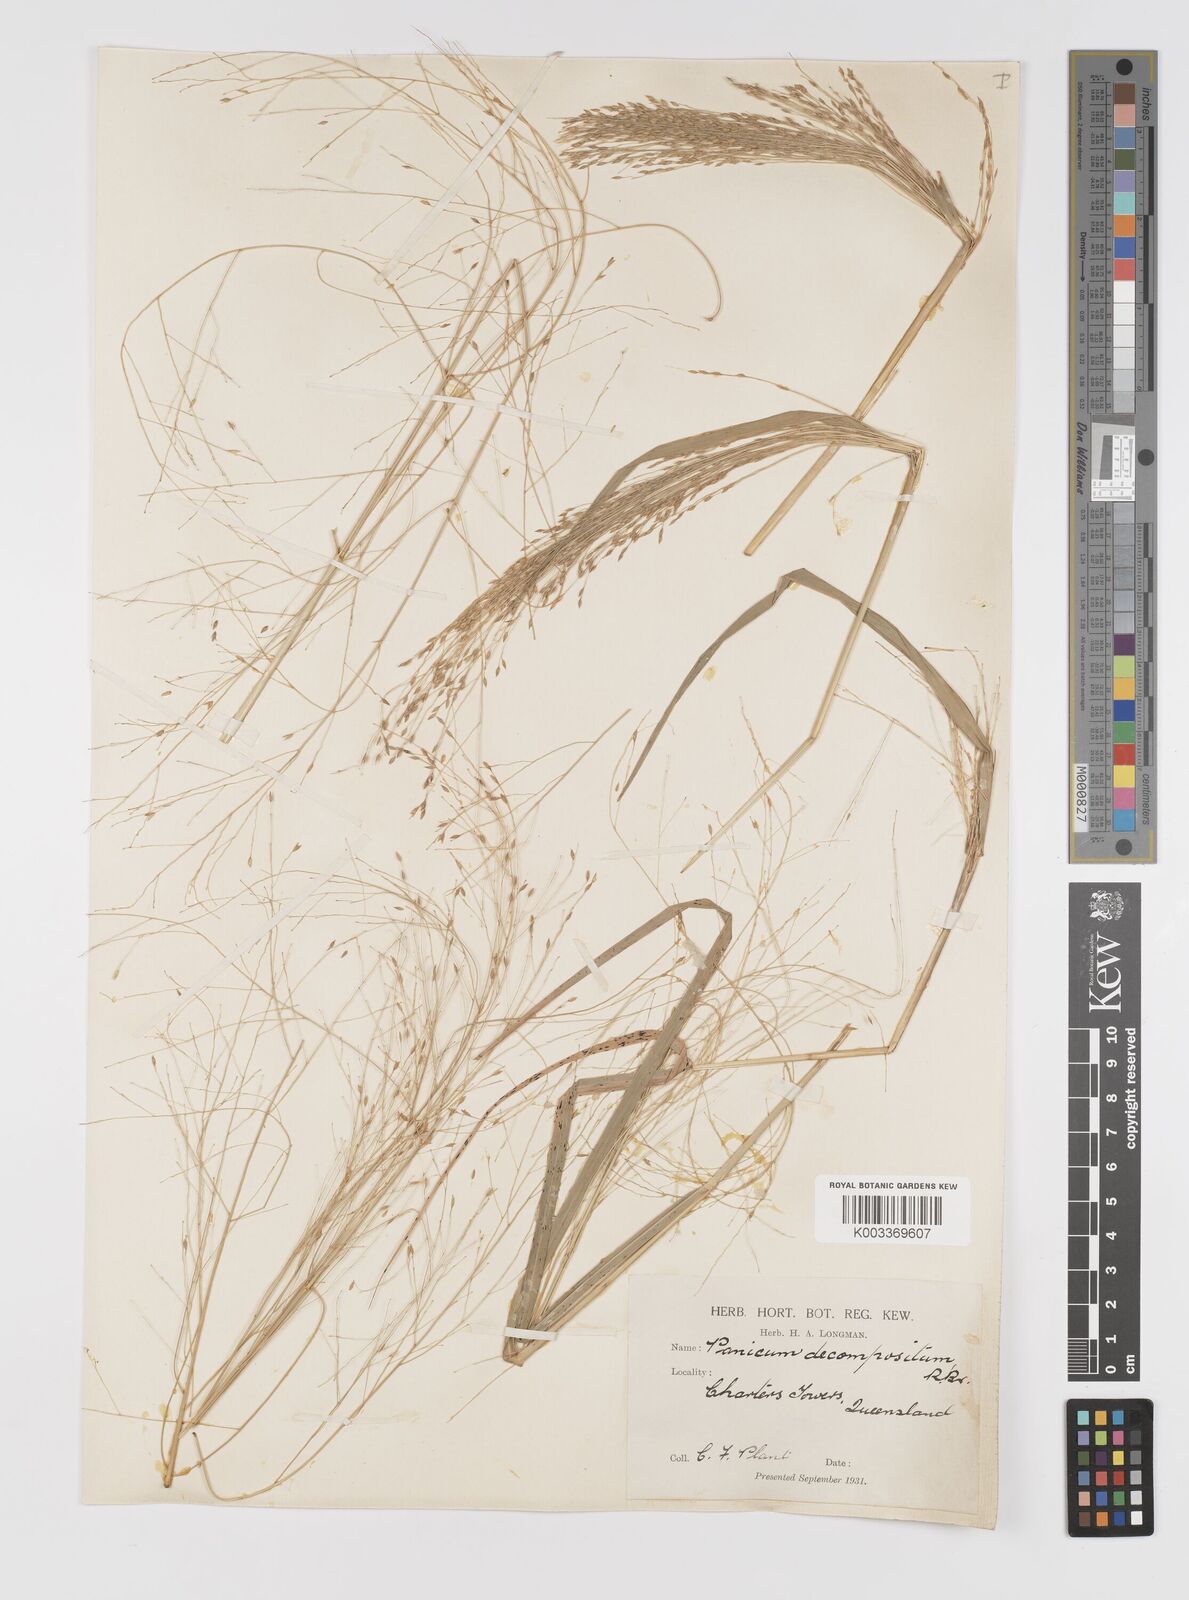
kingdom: Plantae
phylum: Tracheophyta
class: Liliopsida
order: Poales
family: Poaceae
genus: Panicum
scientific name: Panicum decompositum
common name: Australian millet
